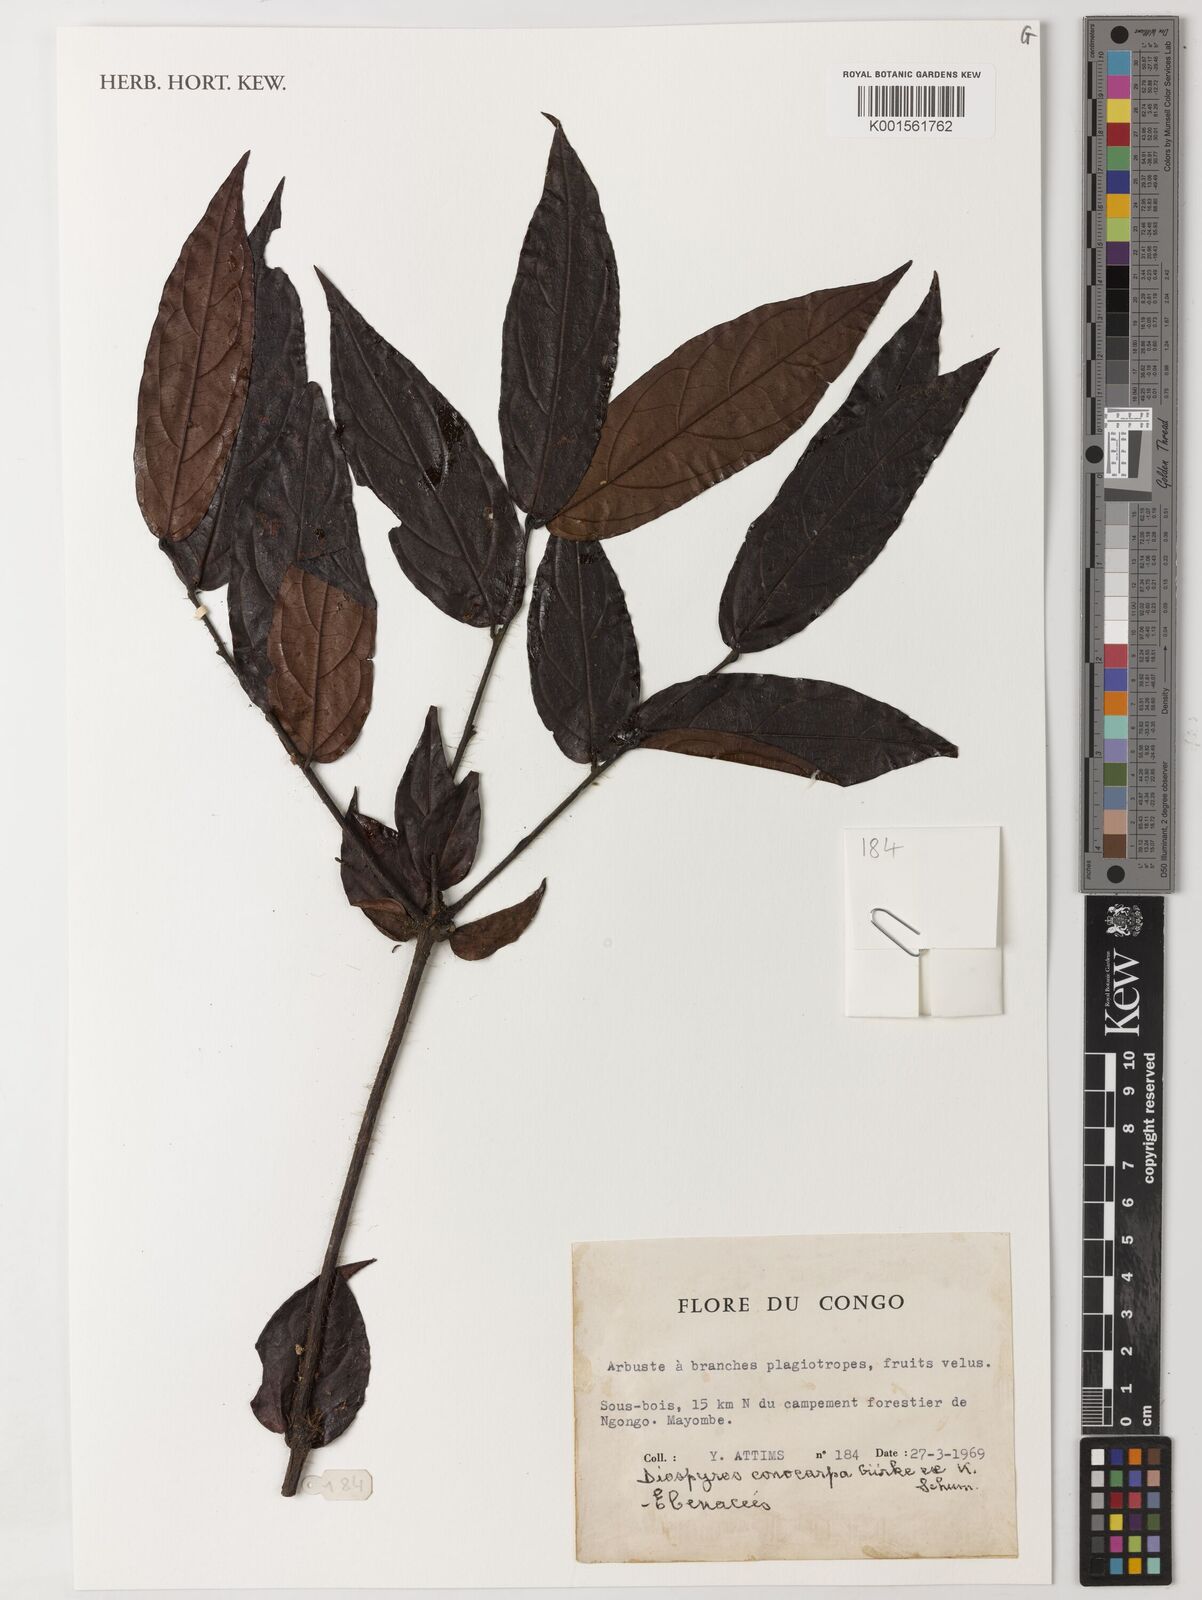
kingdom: Plantae
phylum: Tracheophyta
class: Magnoliopsida
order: Ericales
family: Ebenaceae
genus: Diospyros
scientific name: Diospyros conocarpa
